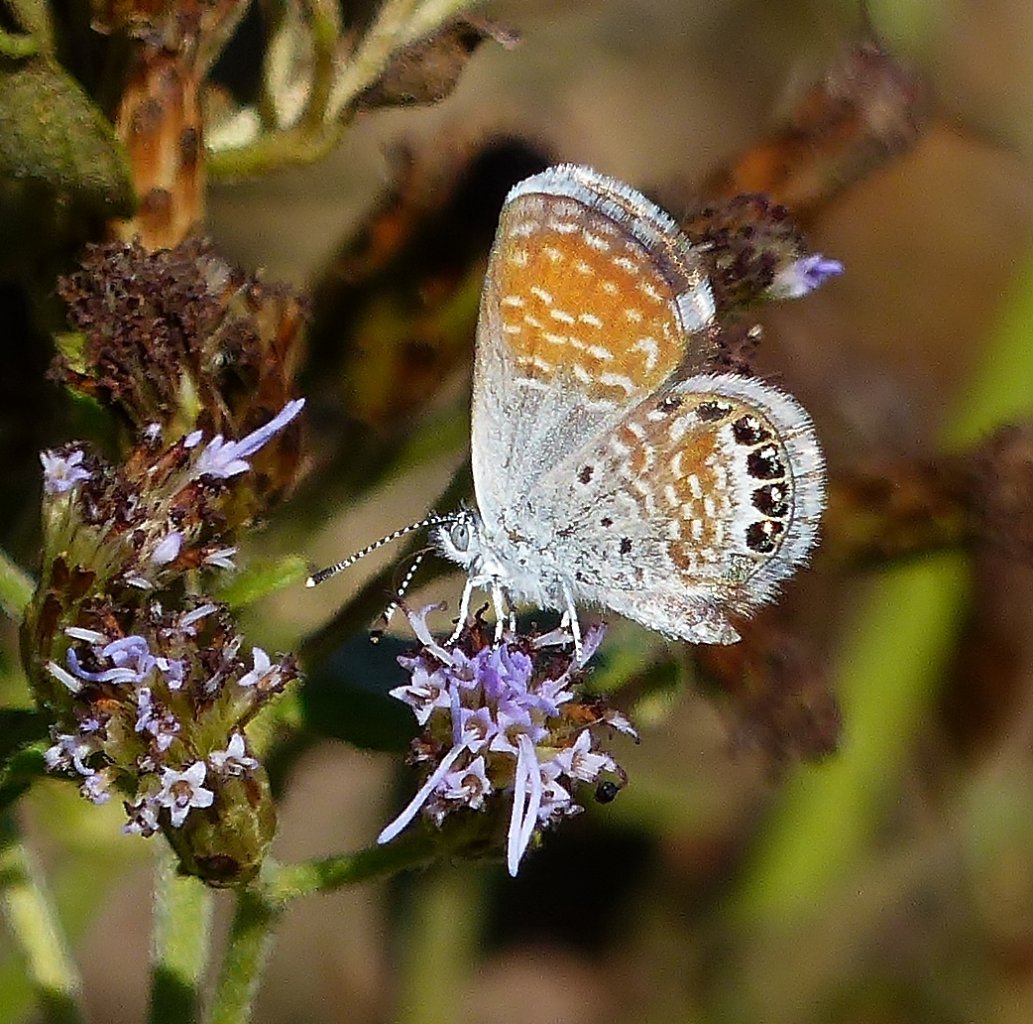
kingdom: Animalia
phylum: Arthropoda
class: Insecta
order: Lepidoptera
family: Lycaenidae
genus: Brephidium
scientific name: Brephidium exilis
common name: Western Pygmy-Blue
